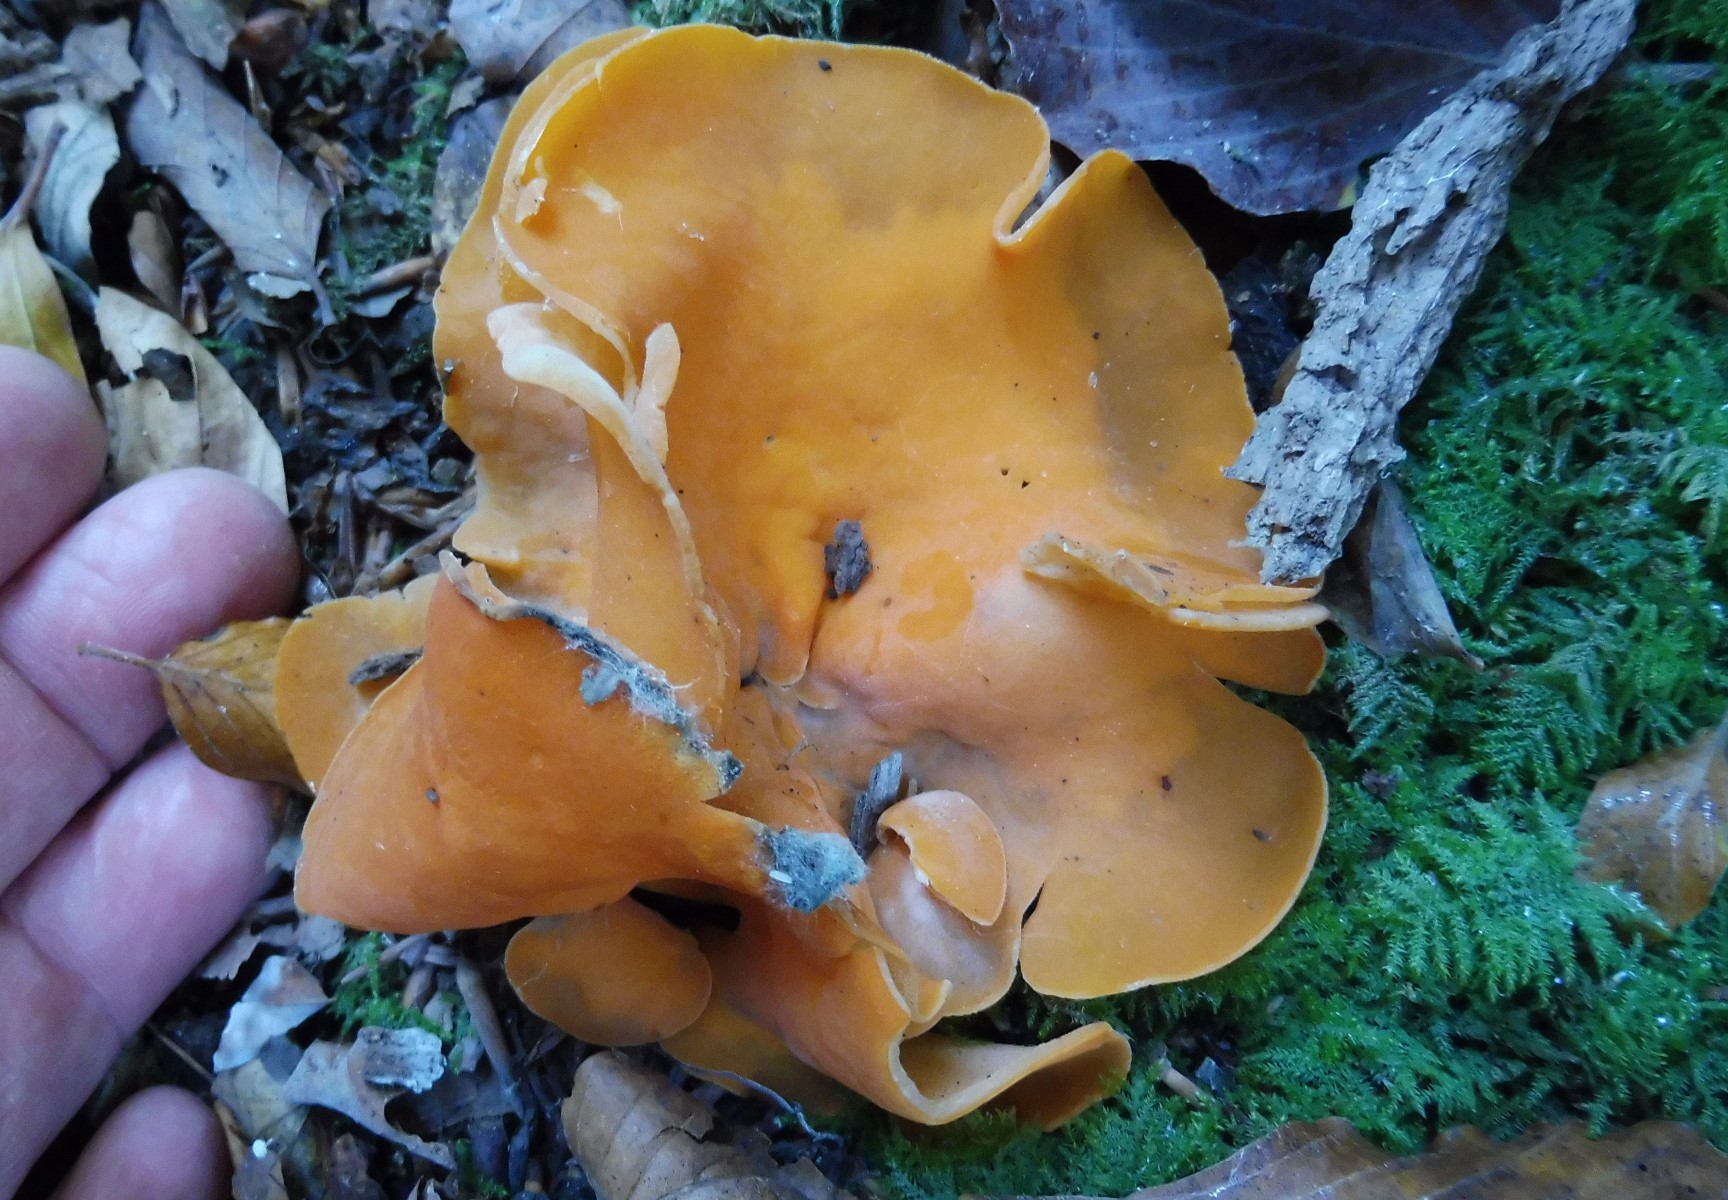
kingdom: Fungi
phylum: Ascomycota
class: Pezizomycetes
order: Pezizales
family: Pyronemataceae
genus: Aleuria
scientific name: Aleuria aurantia
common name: almindelig orangebæger
